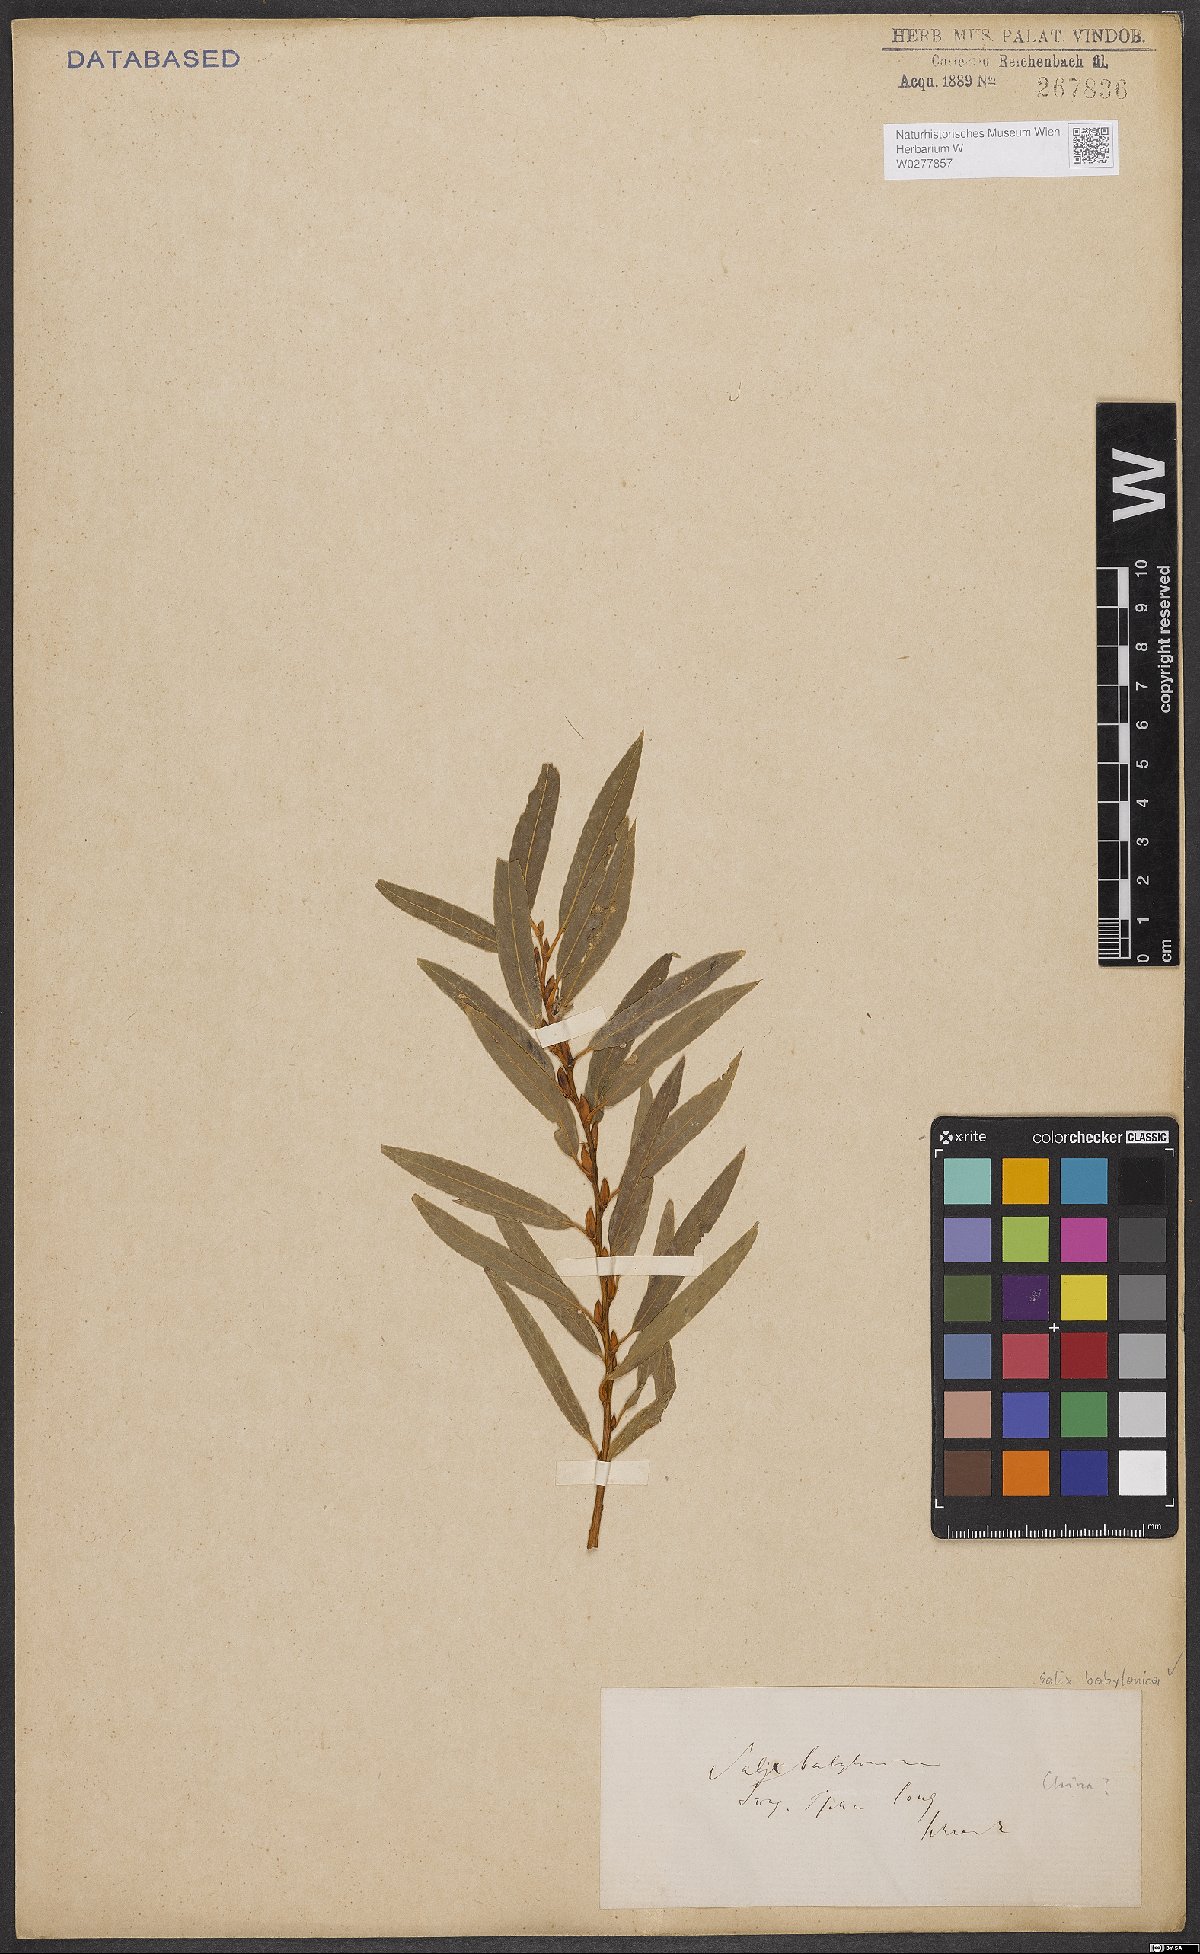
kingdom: Plantae
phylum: Tracheophyta
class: Magnoliopsida
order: Malpighiales
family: Salicaceae
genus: Salix
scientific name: Salix babylonica
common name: Weeping willow
